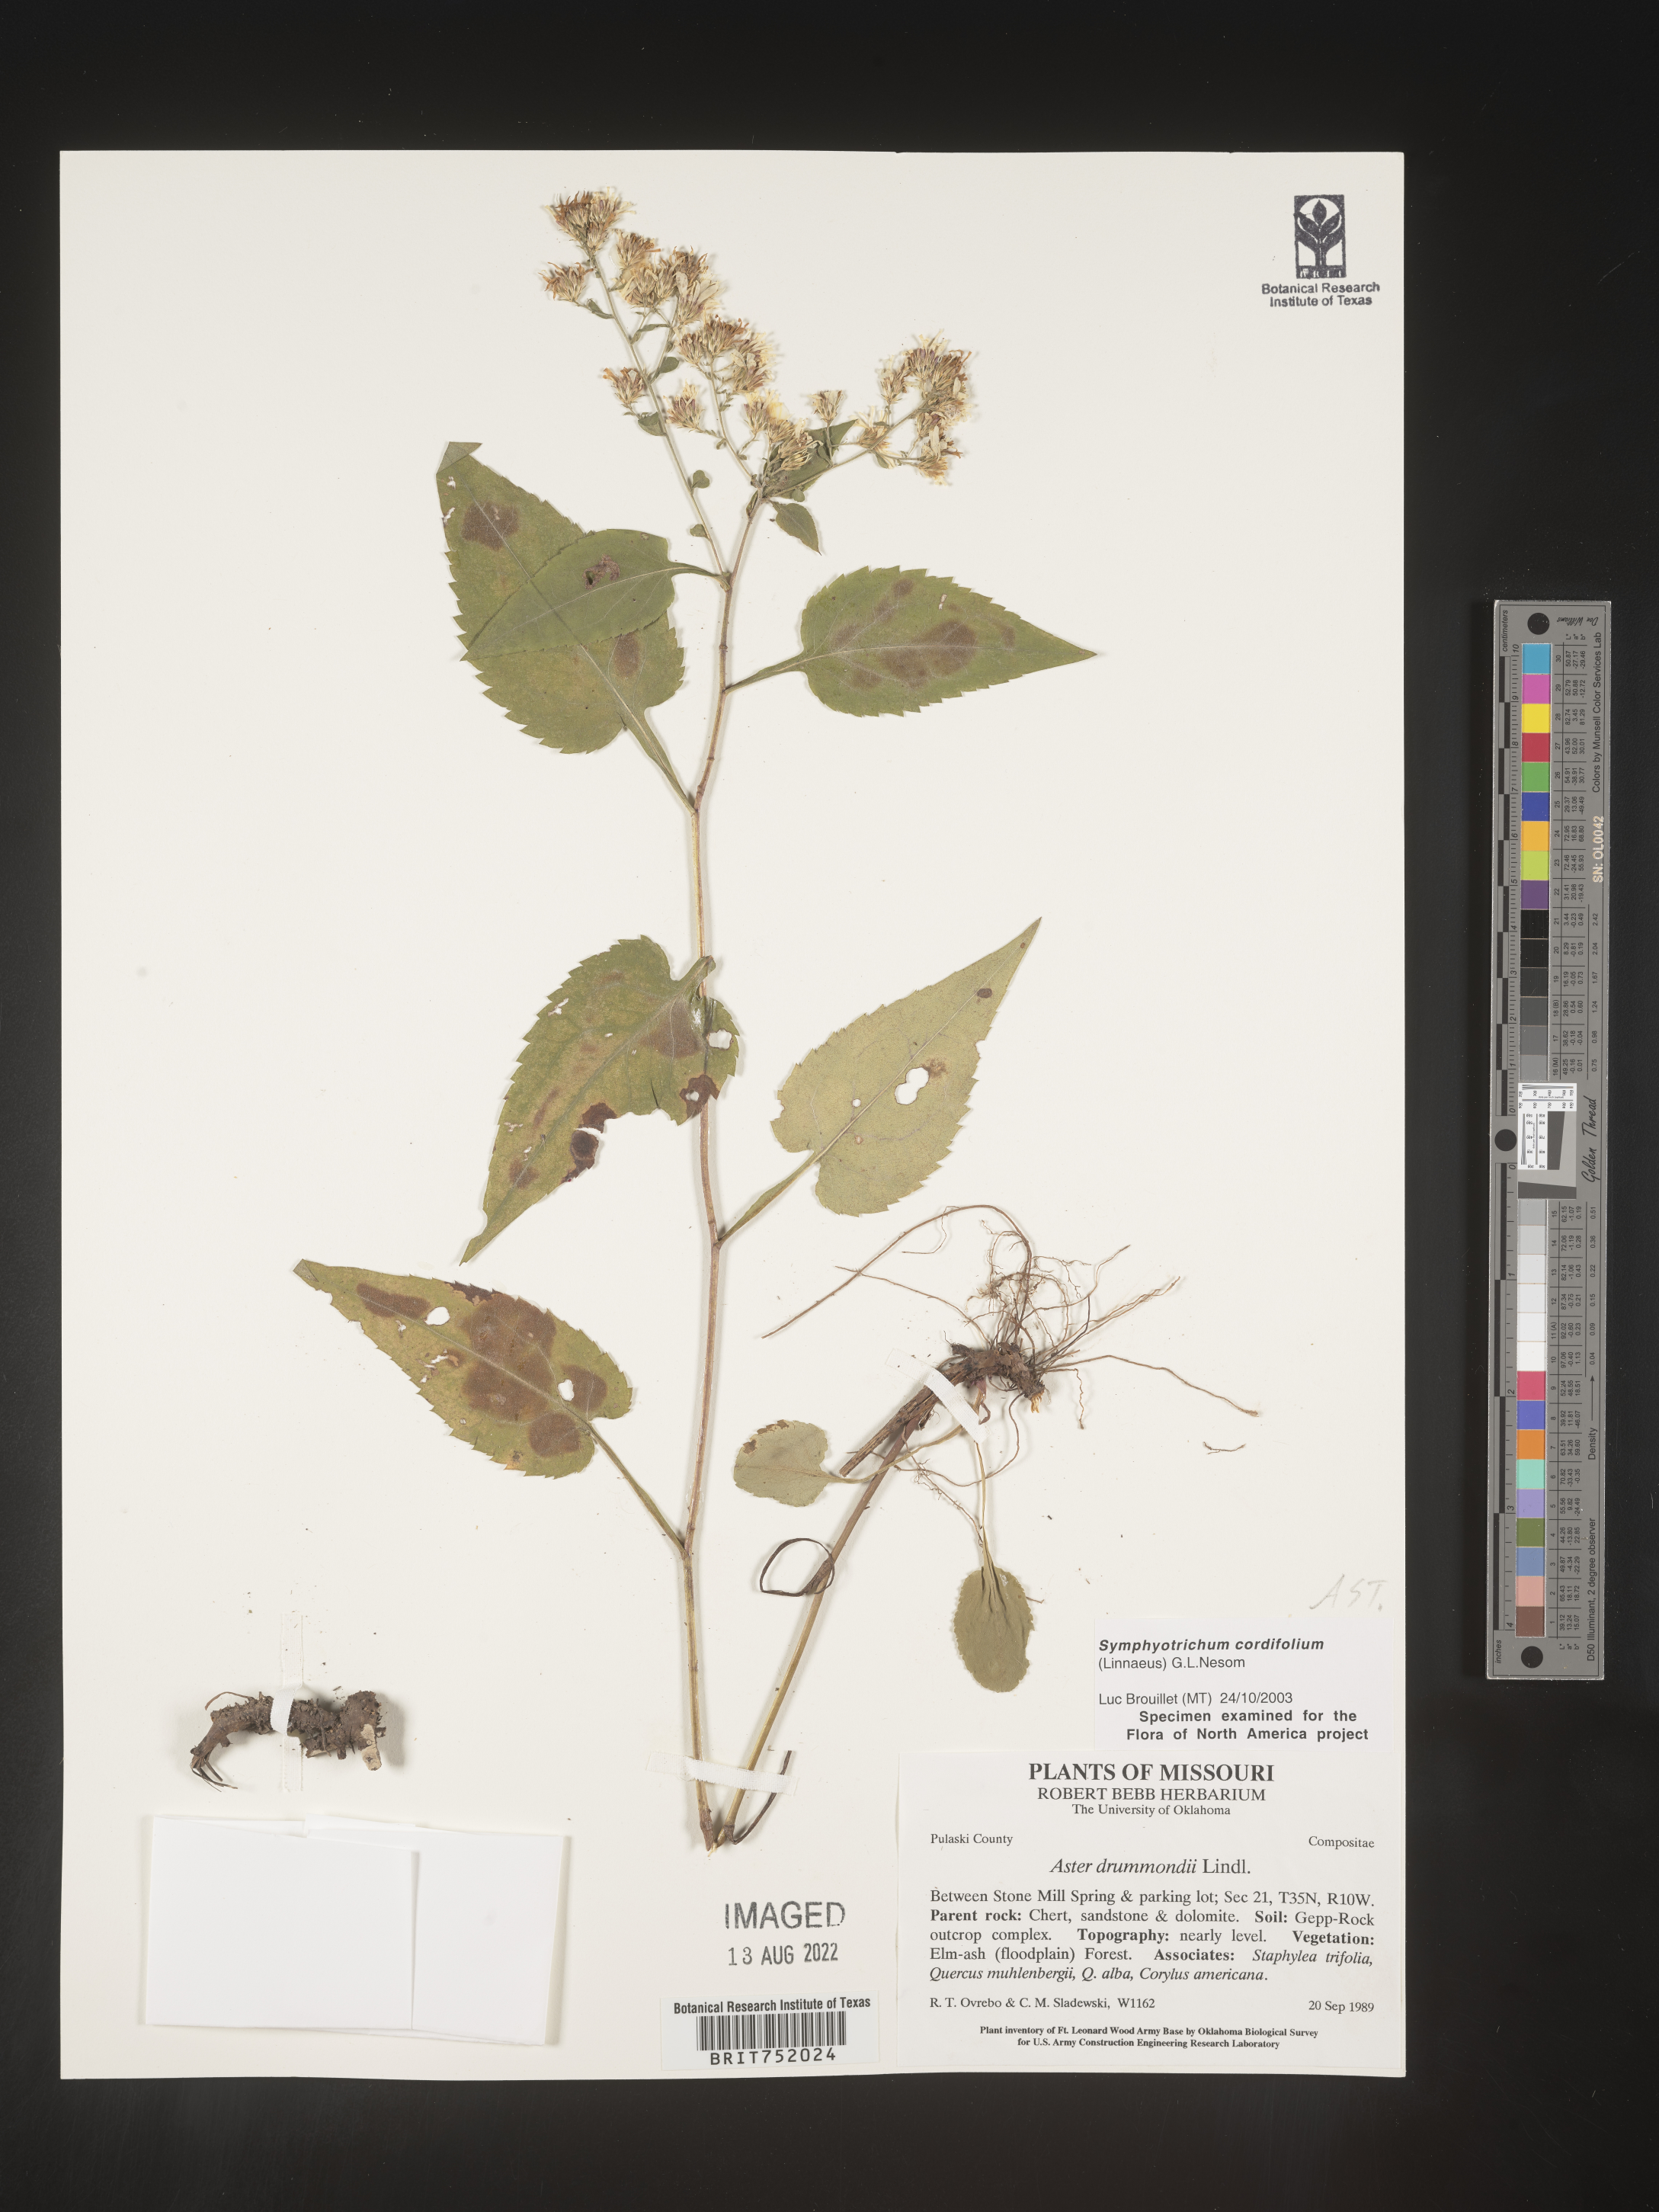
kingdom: Plantae
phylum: Tracheophyta
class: Magnoliopsida
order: Asterales
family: Asteraceae
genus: Symphyotrichum
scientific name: Symphyotrichum drummondii
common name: Drummond's aster
